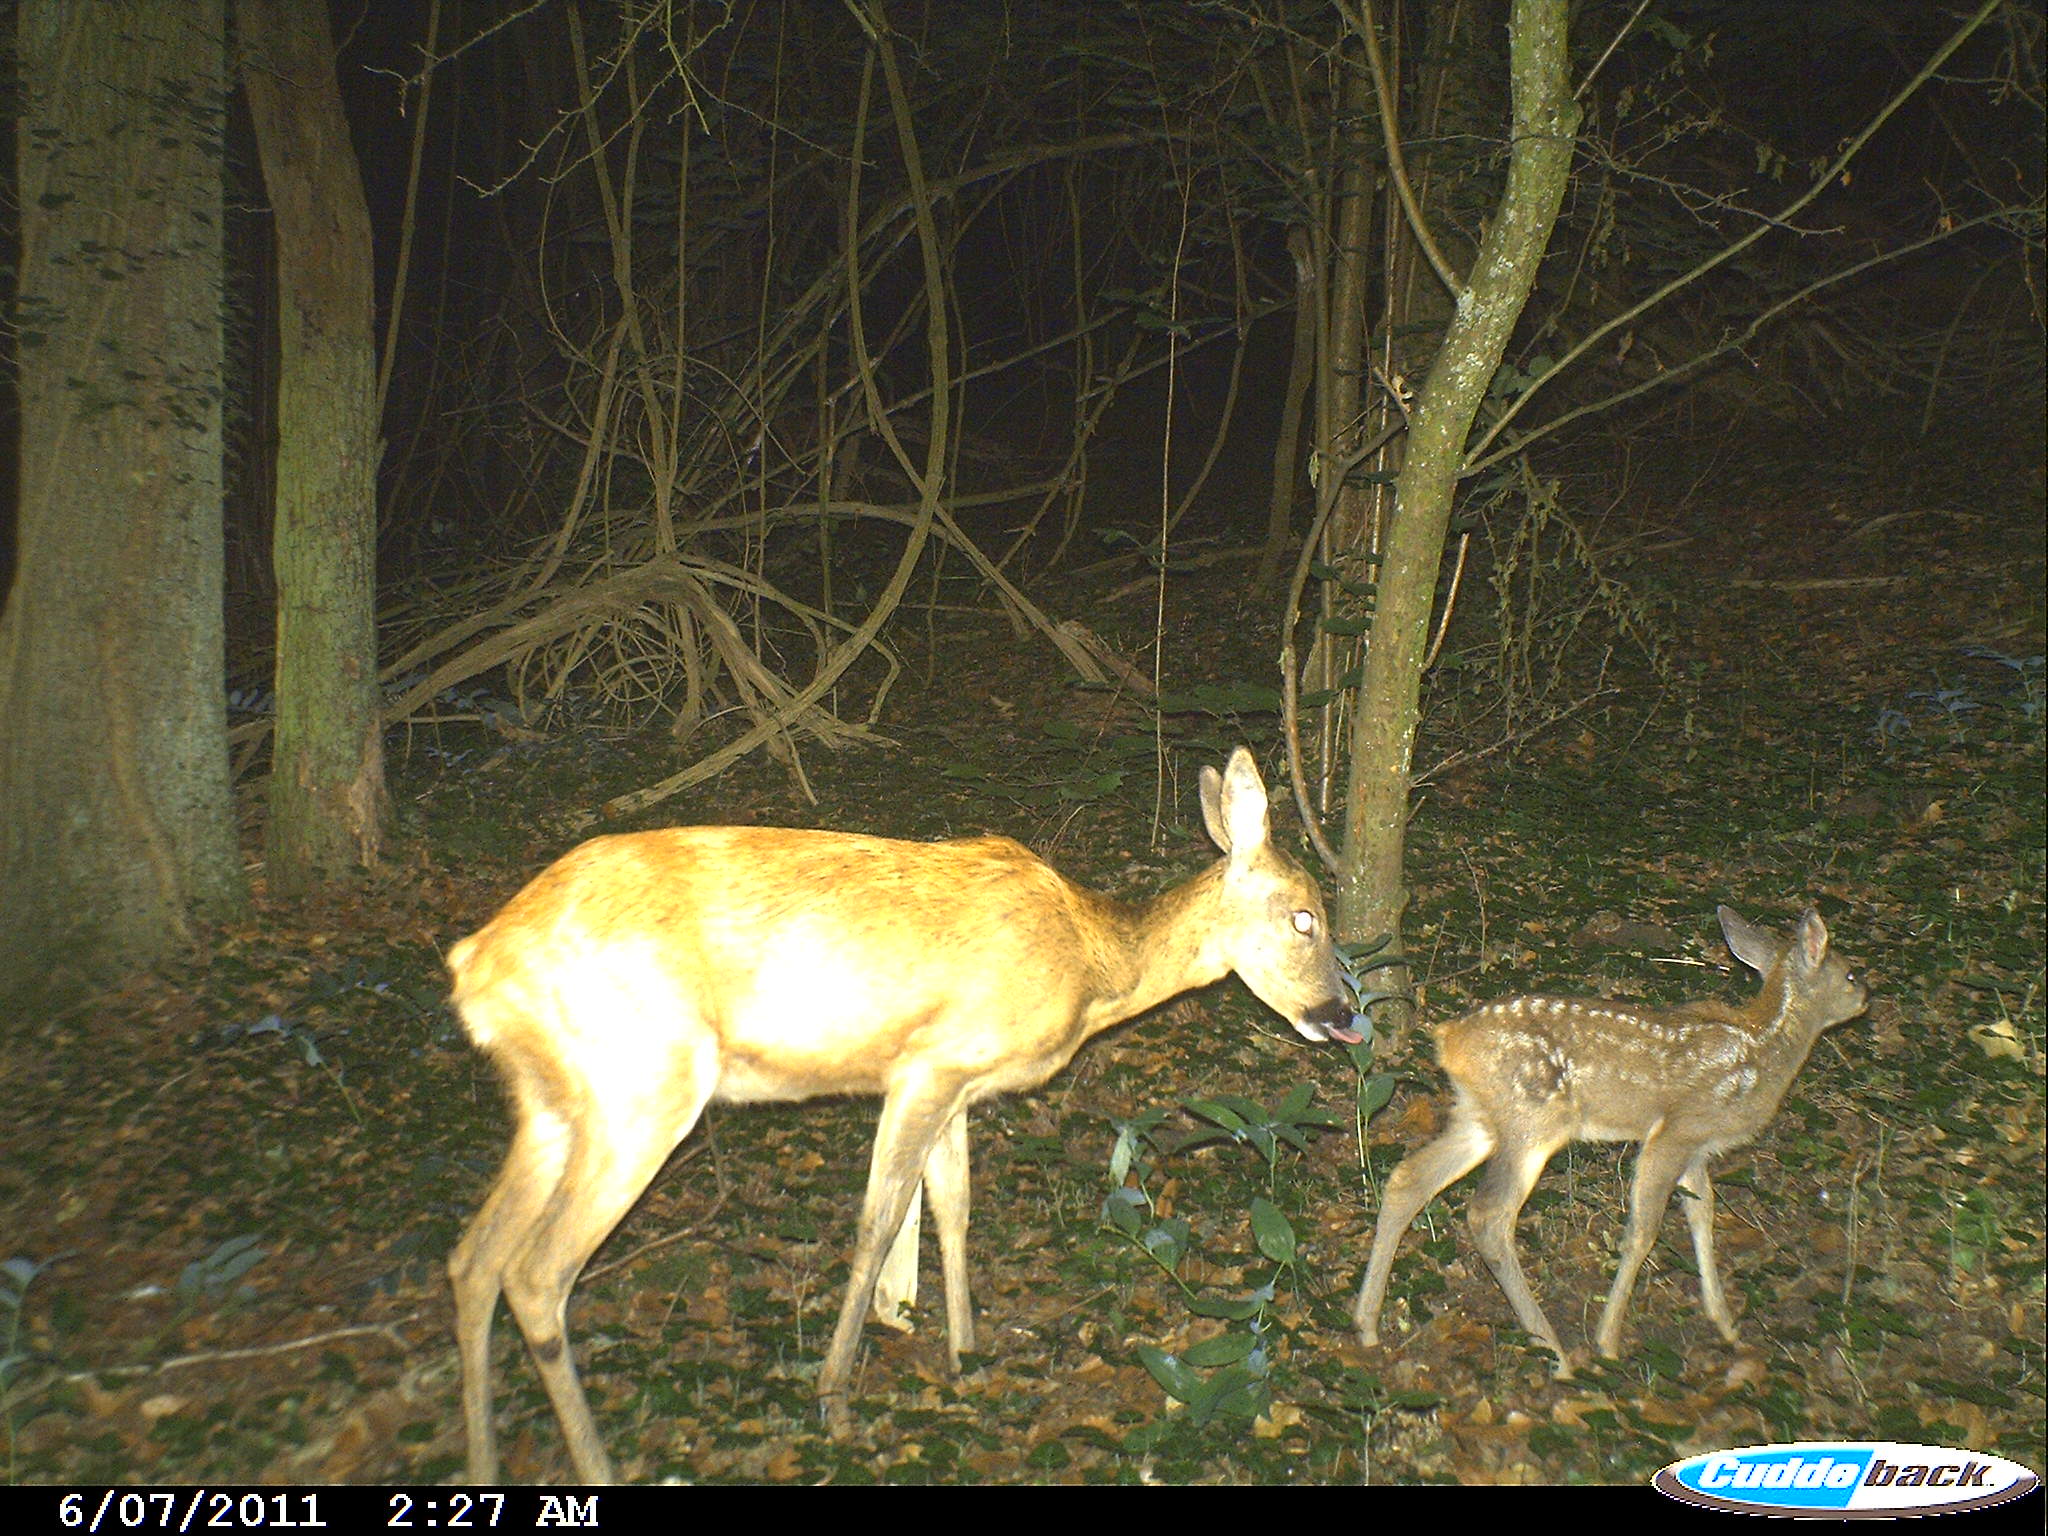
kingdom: Animalia
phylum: Chordata
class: Mammalia
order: Artiodactyla
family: Cervidae
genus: Capreolus
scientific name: Capreolus capreolus
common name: Western roe deer
